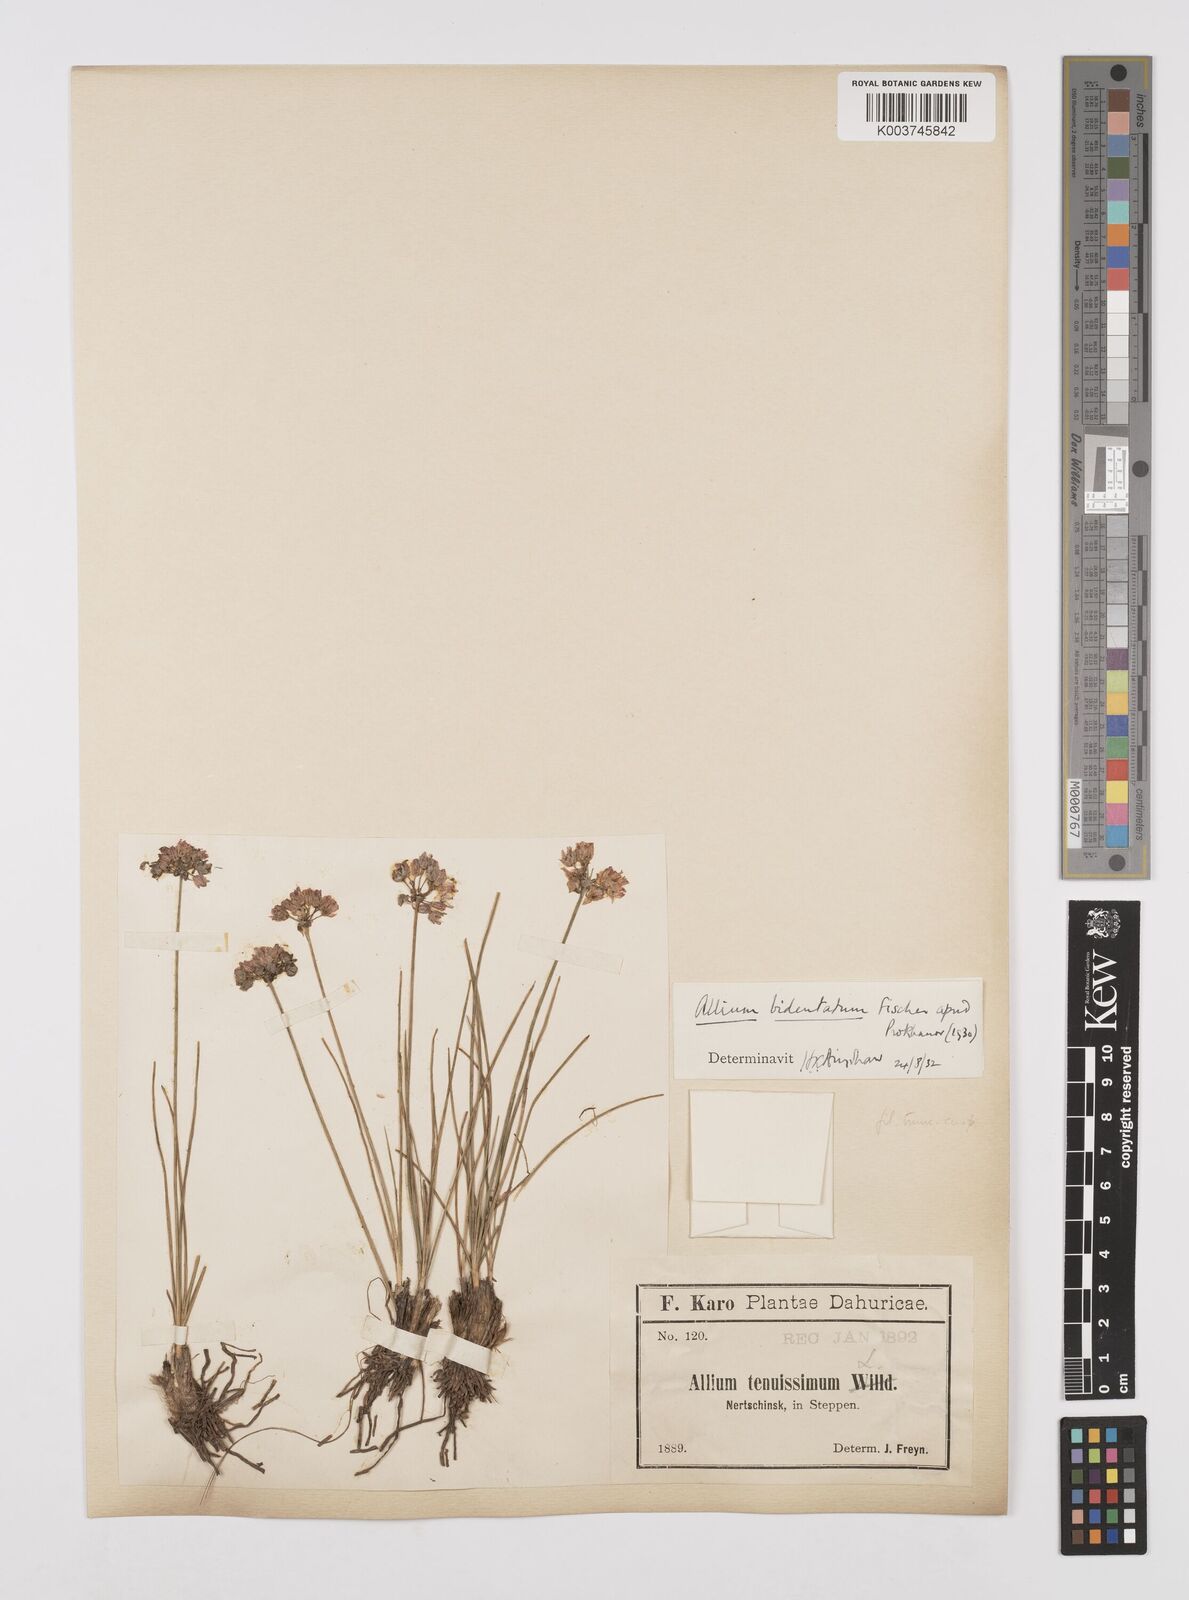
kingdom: Plantae
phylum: Tracheophyta
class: Liliopsida
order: Asparagales
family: Amaryllidaceae
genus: Allium
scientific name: Allium bidentatum
